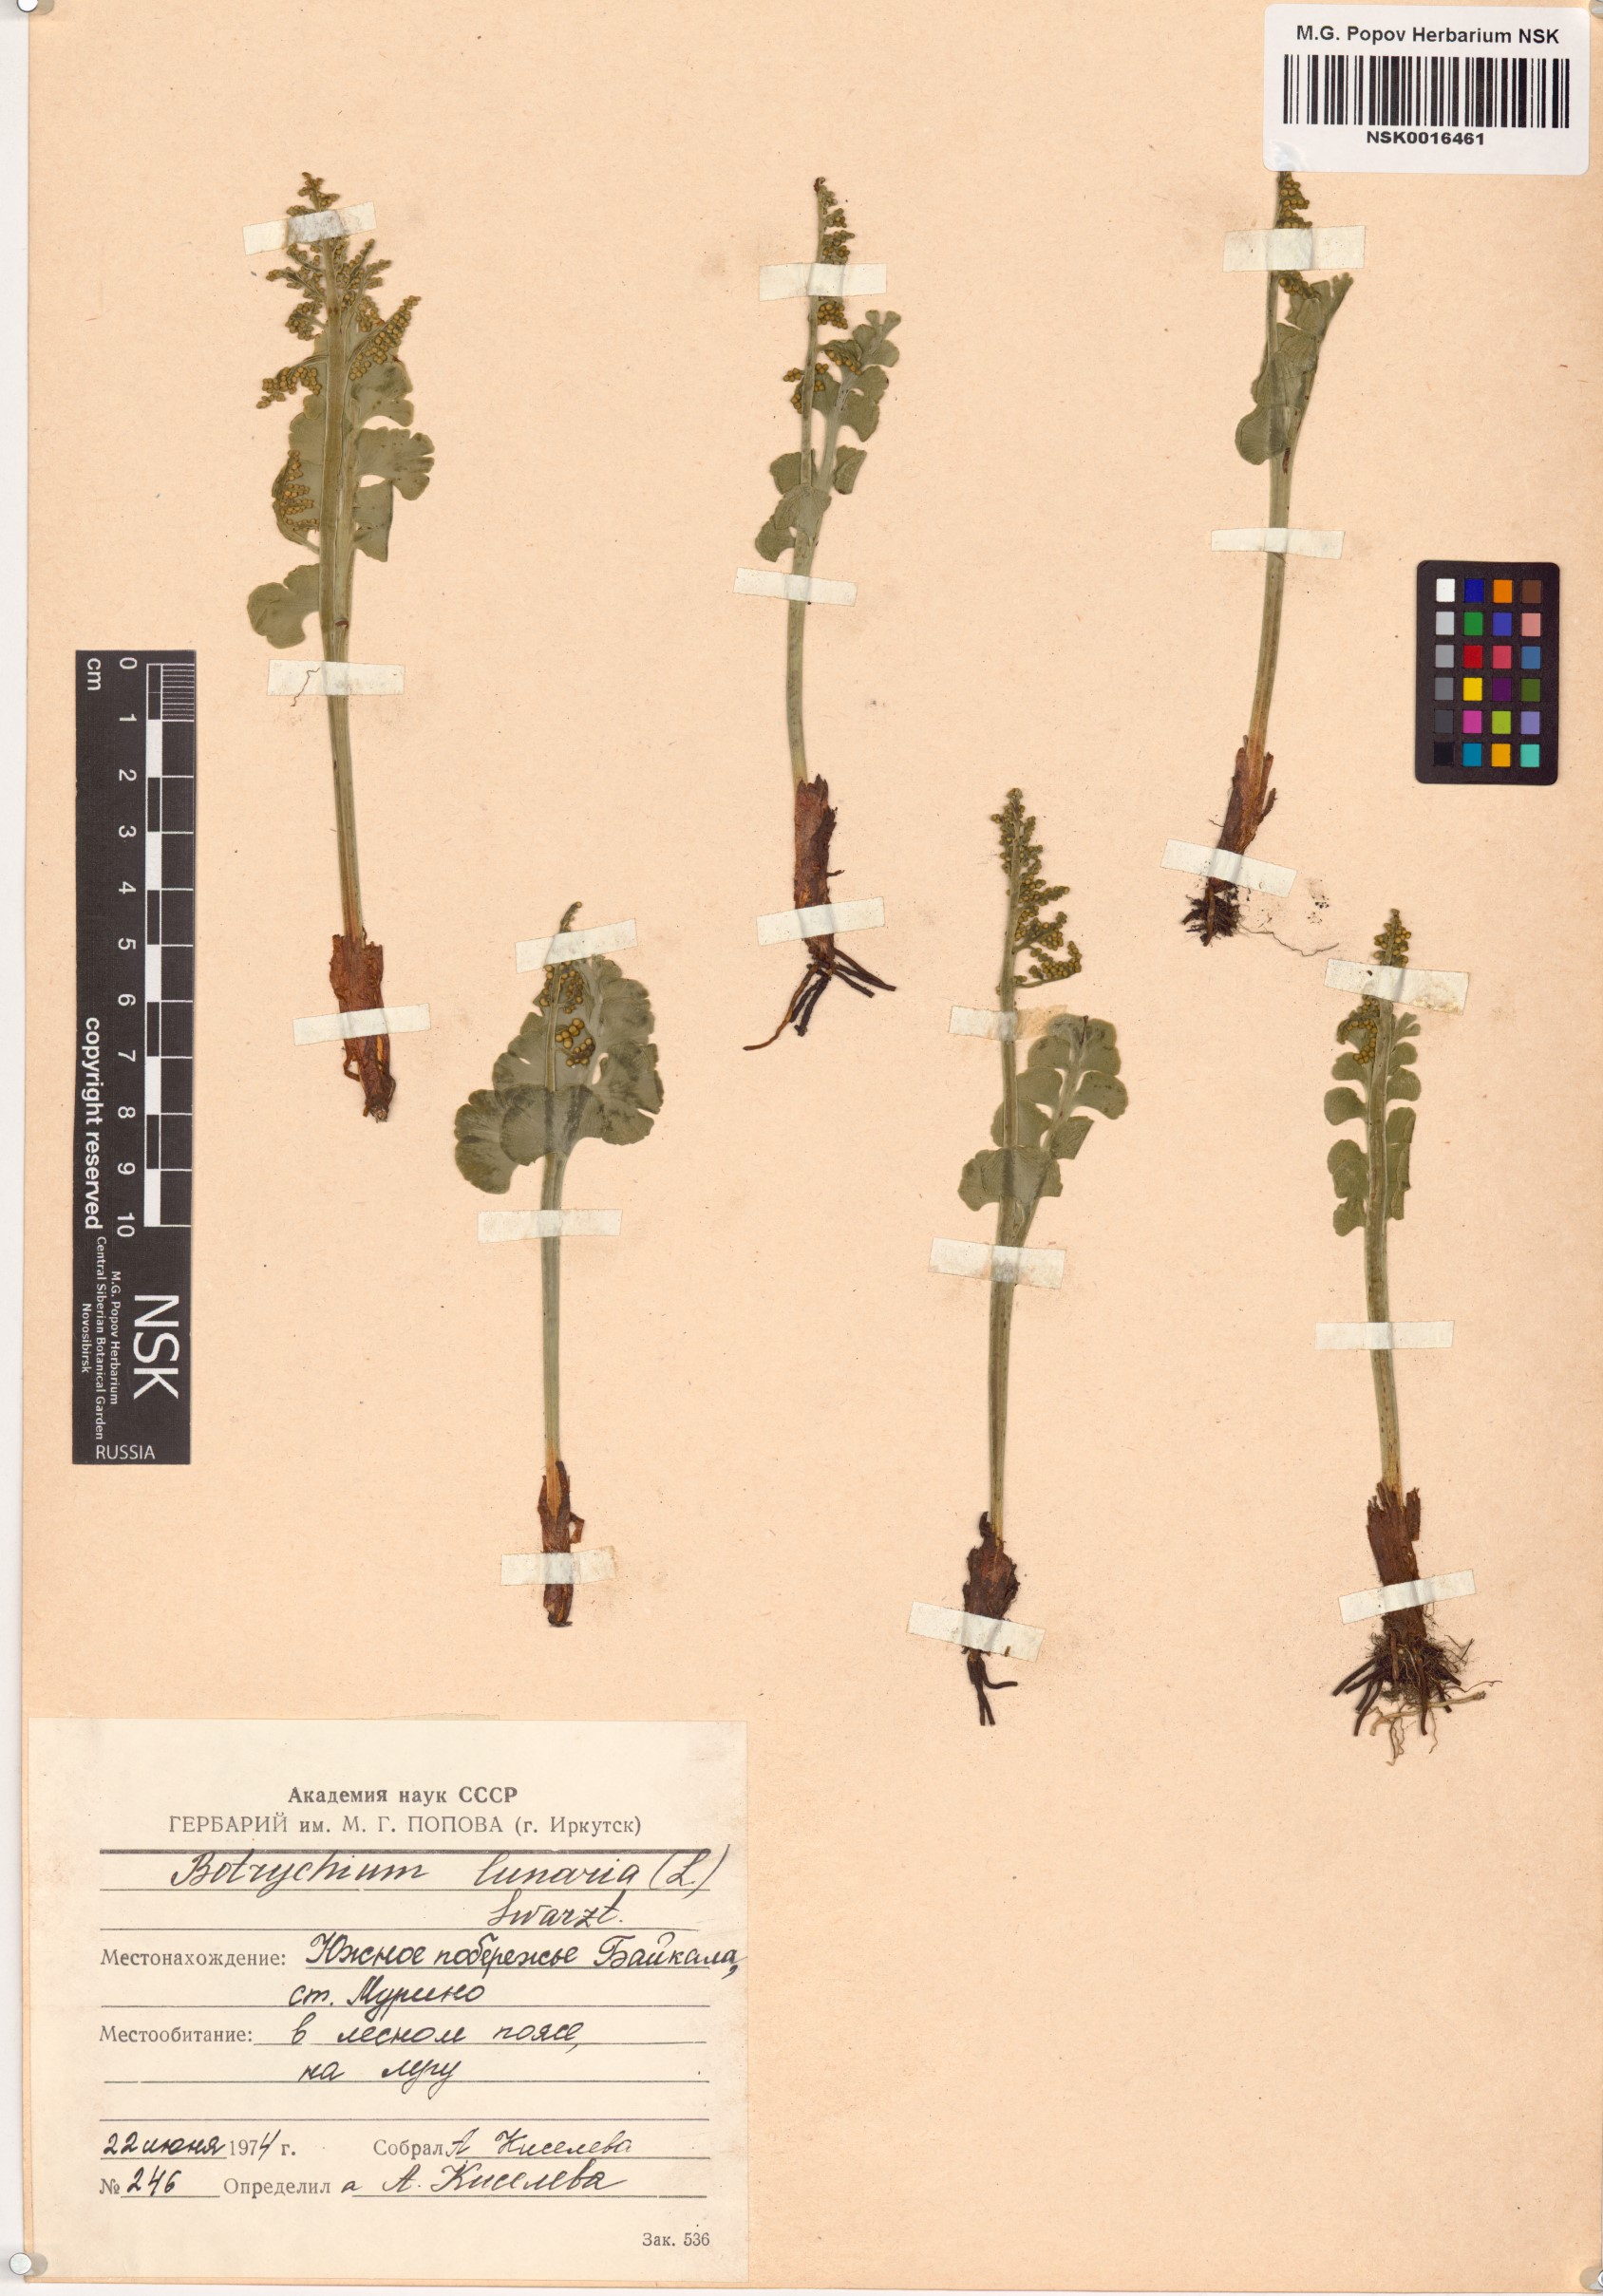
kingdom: Plantae
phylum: Tracheophyta
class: Polypodiopsida
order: Ophioglossales
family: Ophioglossaceae
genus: Botrychium
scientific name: Botrychium lunaria
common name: Moonwort
